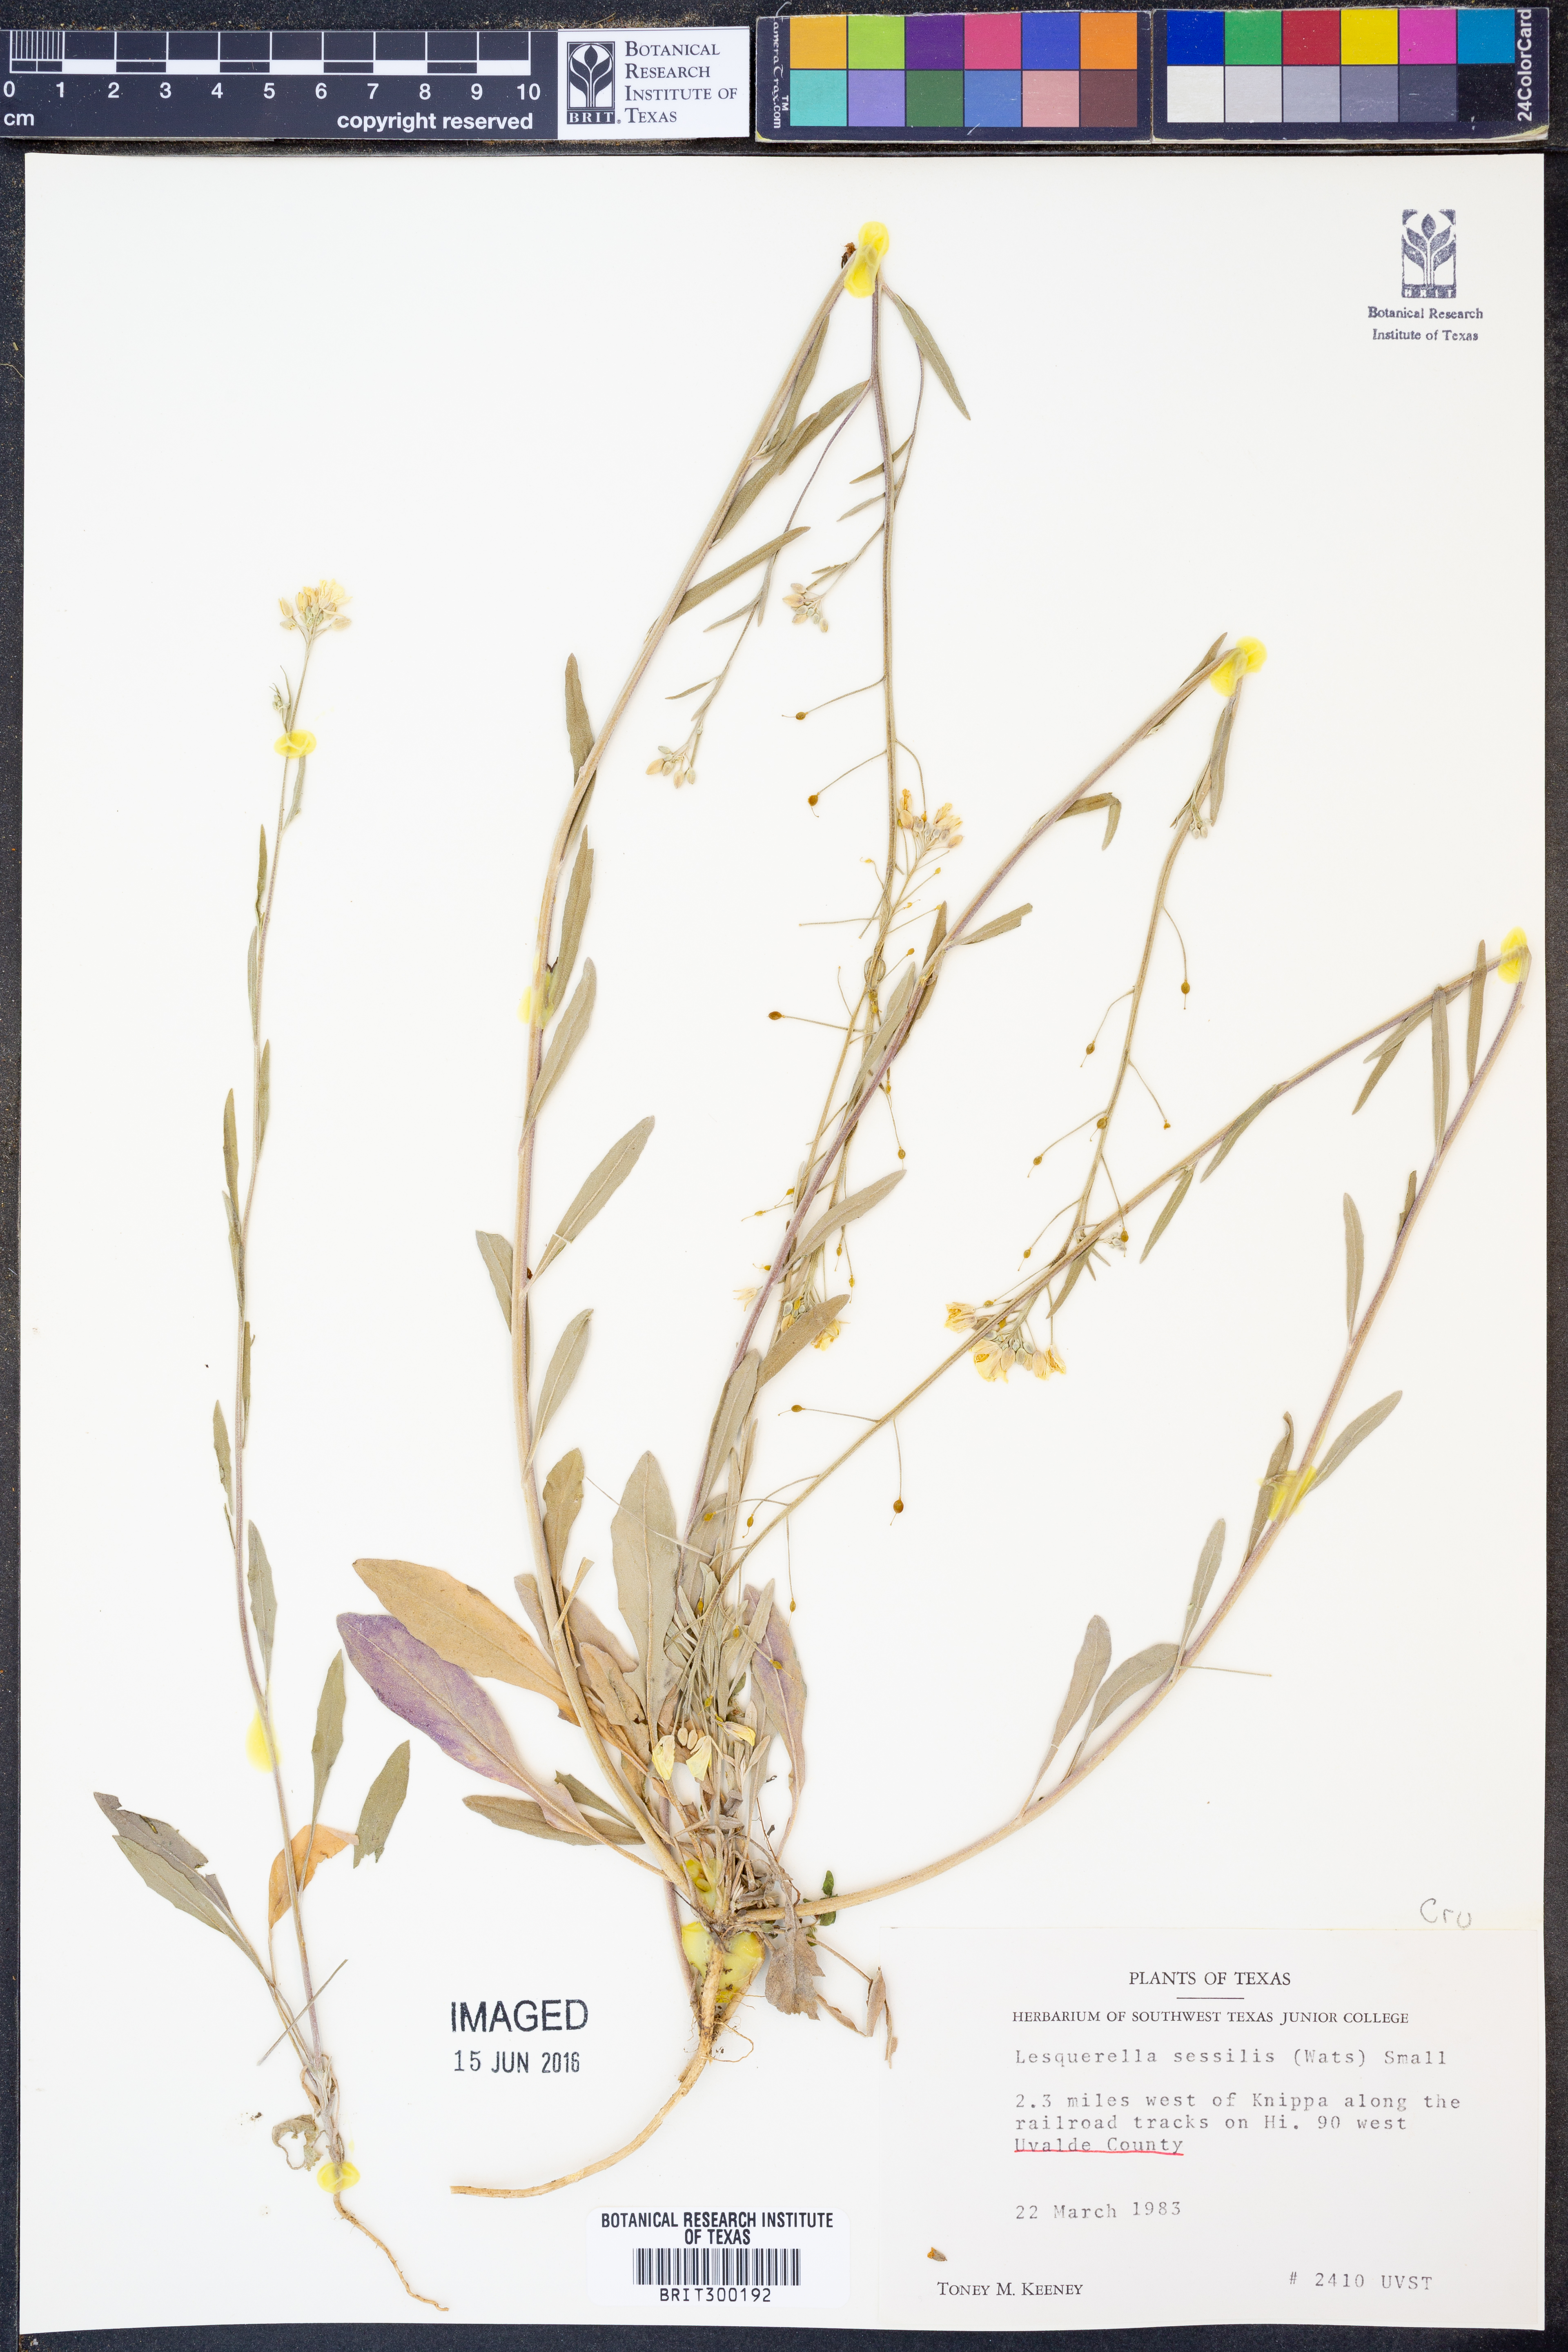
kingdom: Plantae
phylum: Tracheophyta
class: Magnoliopsida
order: Brassicales
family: Brassicaceae
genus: Physaria
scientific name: Physaria sessilis
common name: Sessile bladderpod
